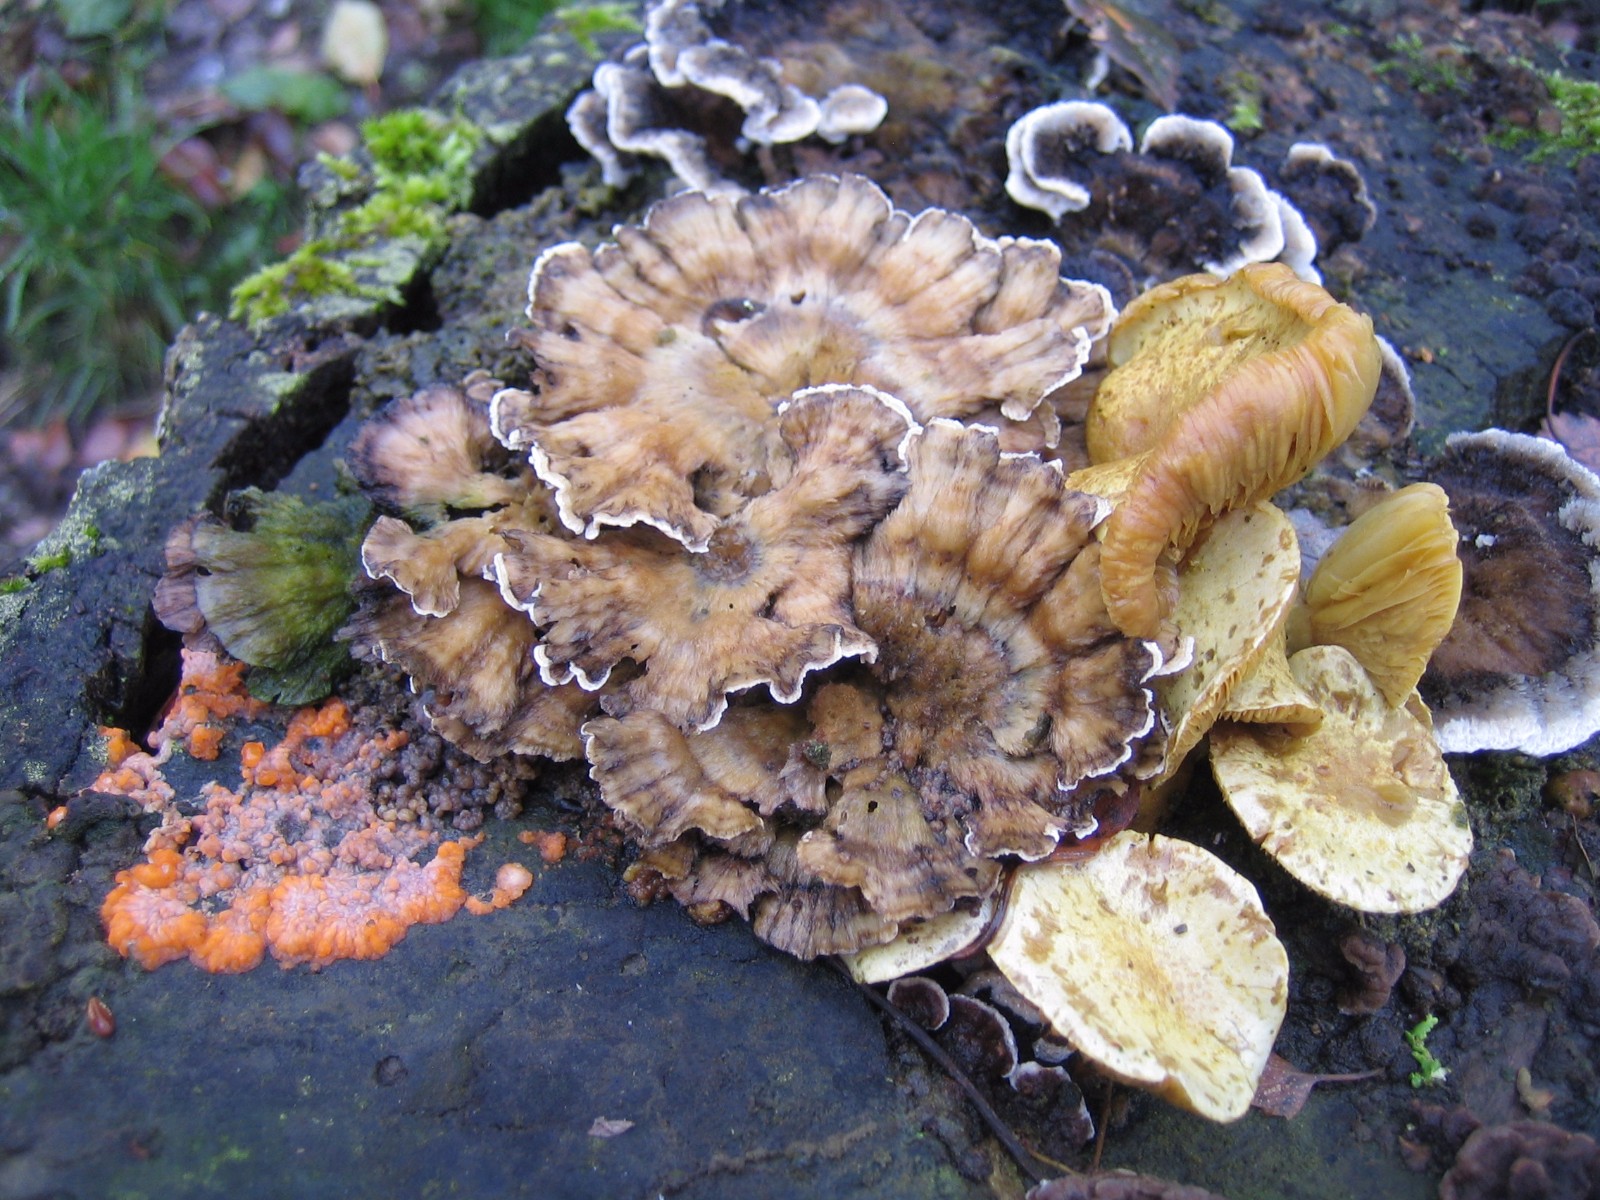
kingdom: Fungi
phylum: Basidiomycota
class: Agaricomycetes
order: Polyporales
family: Meruliaceae
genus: Phlebia
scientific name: Phlebia radiata
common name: stråle-åresvamp
